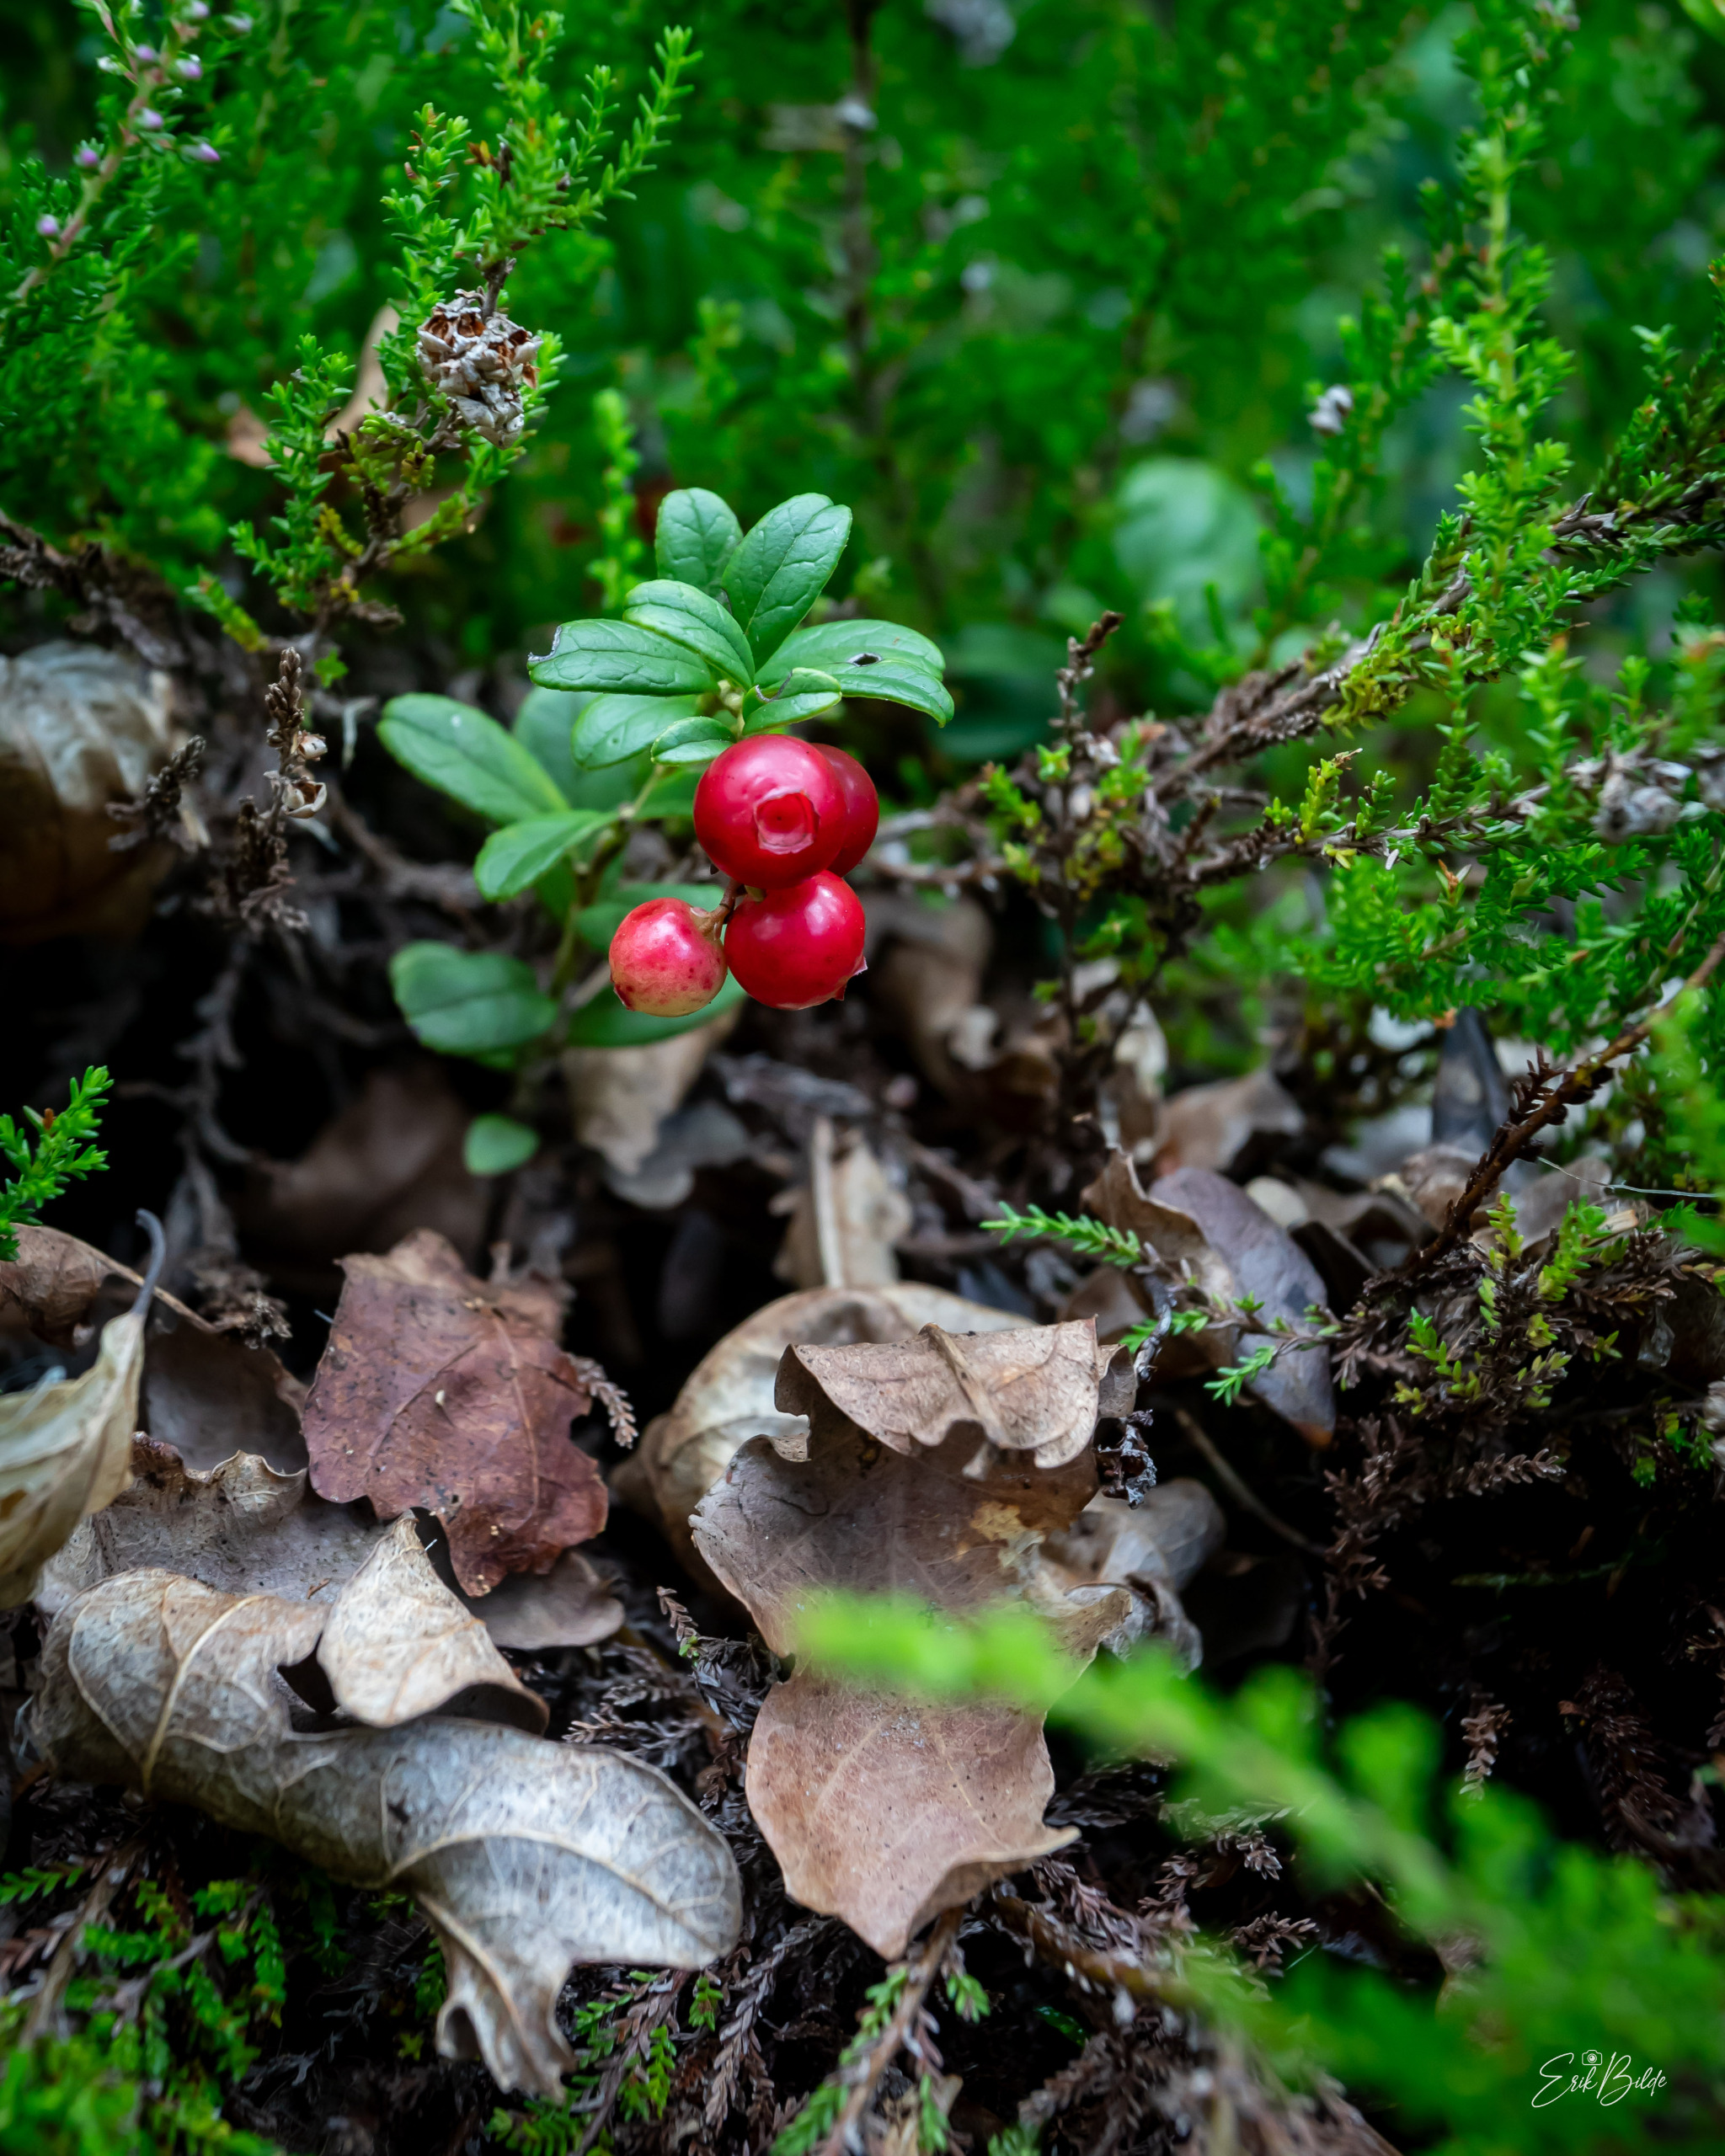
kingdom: Plantae
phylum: Tracheophyta
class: Magnoliopsida
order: Ericales
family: Ericaceae
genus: Vaccinium
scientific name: Vaccinium vitis-idaea
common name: Tyttebær
